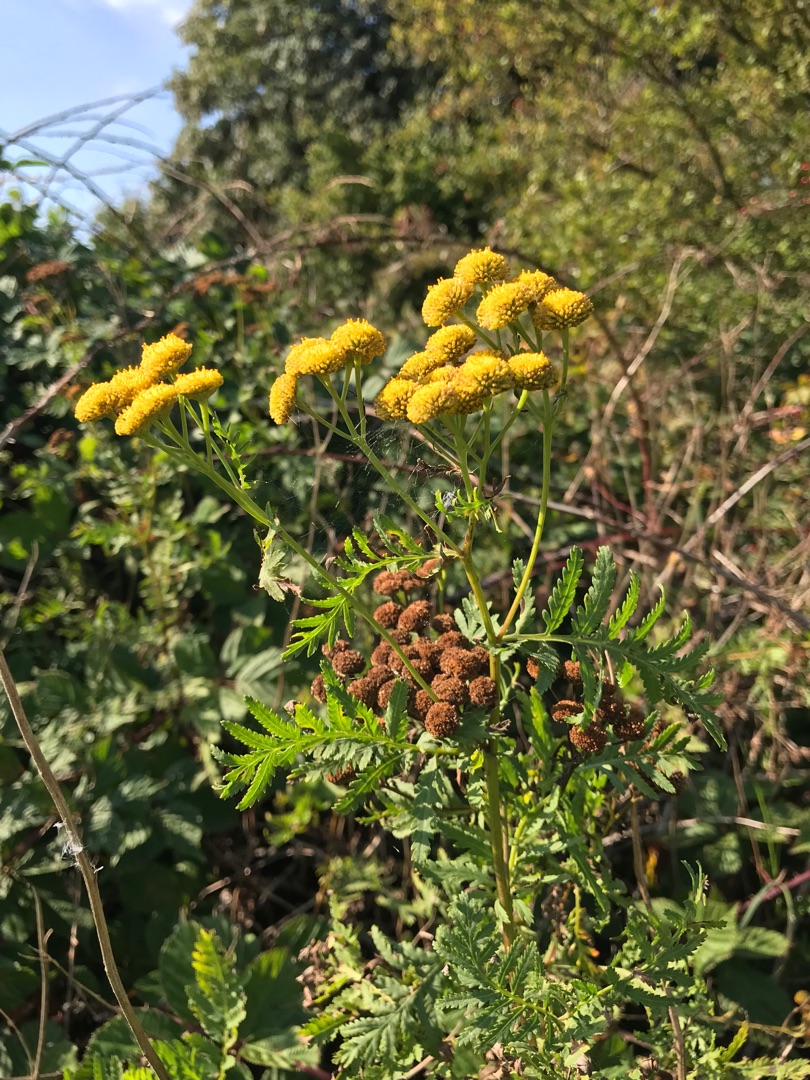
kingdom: Plantae
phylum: Tracheophyta
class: Magnoliopsida
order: Asterales
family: Asteraceae
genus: Tanacetum
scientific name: Tanacetum vulgare
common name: Rejnfan
